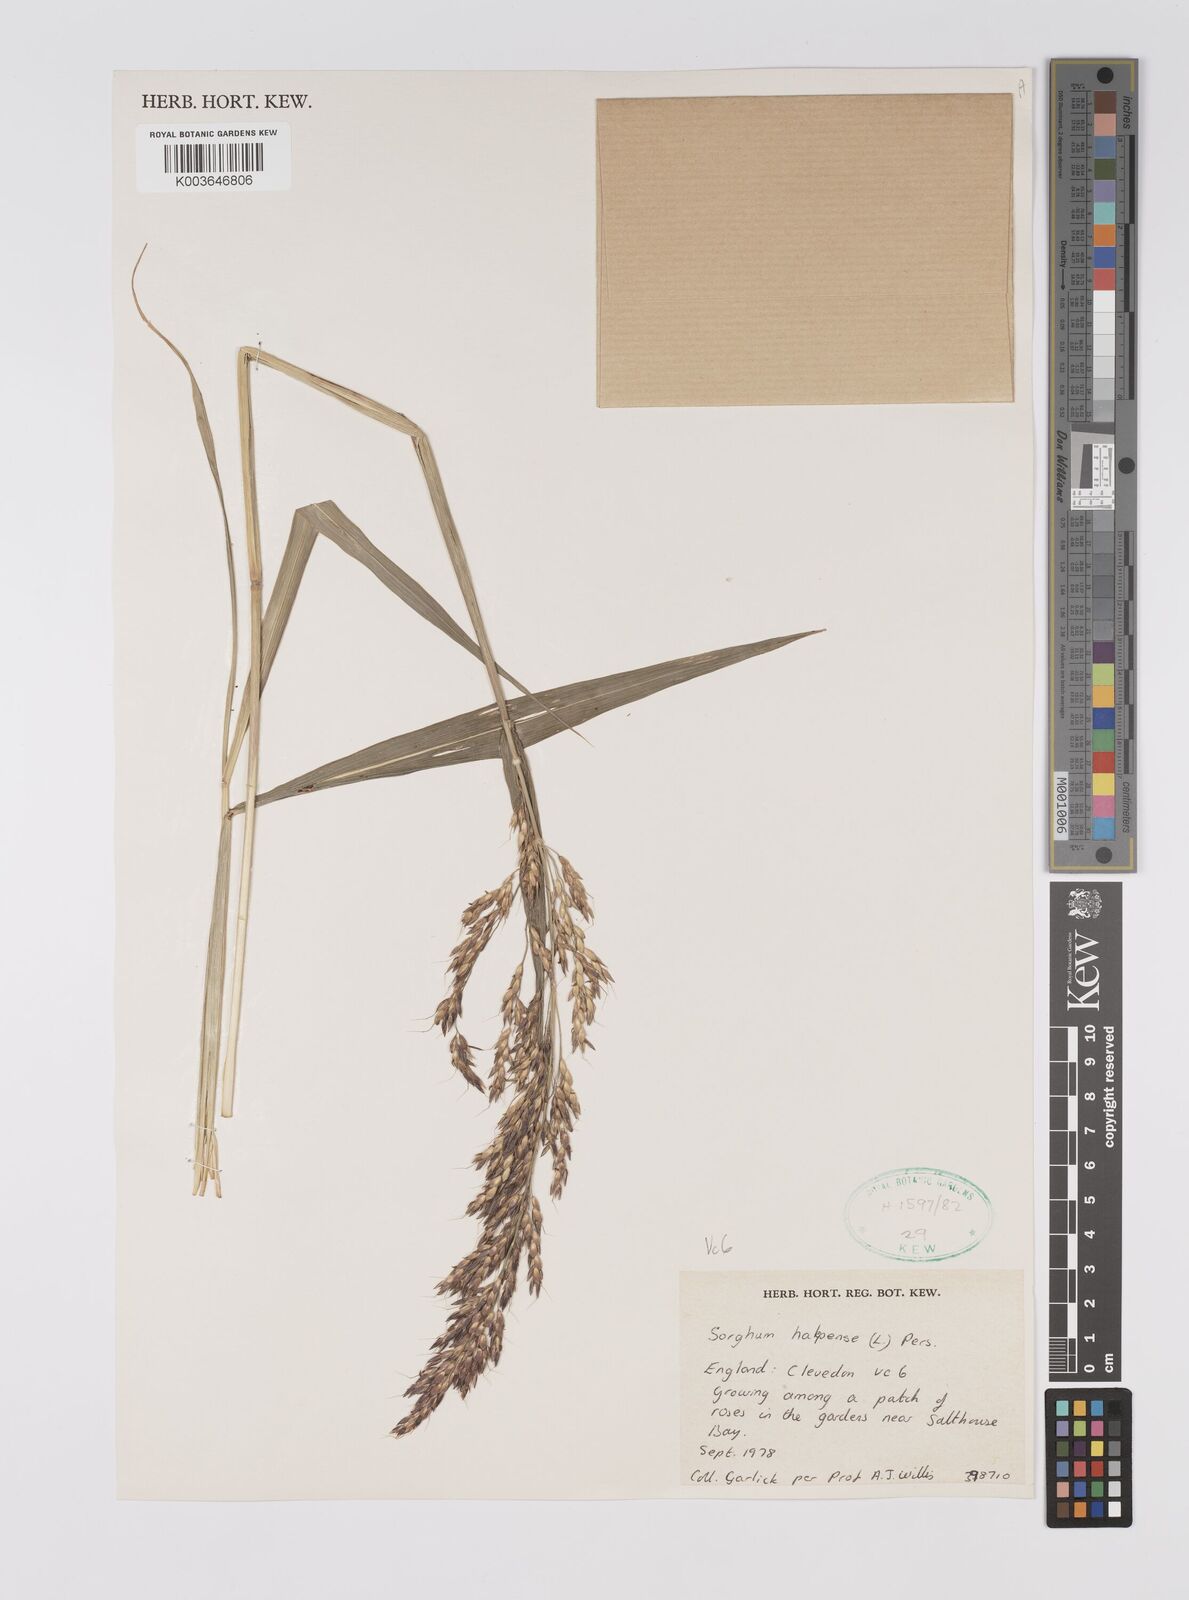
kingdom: Plantae
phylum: Tracheophyta
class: Liliopsida
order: Poales
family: Poaceae
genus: Sorghum
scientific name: Sorghum halepense
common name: Johnson-grass
